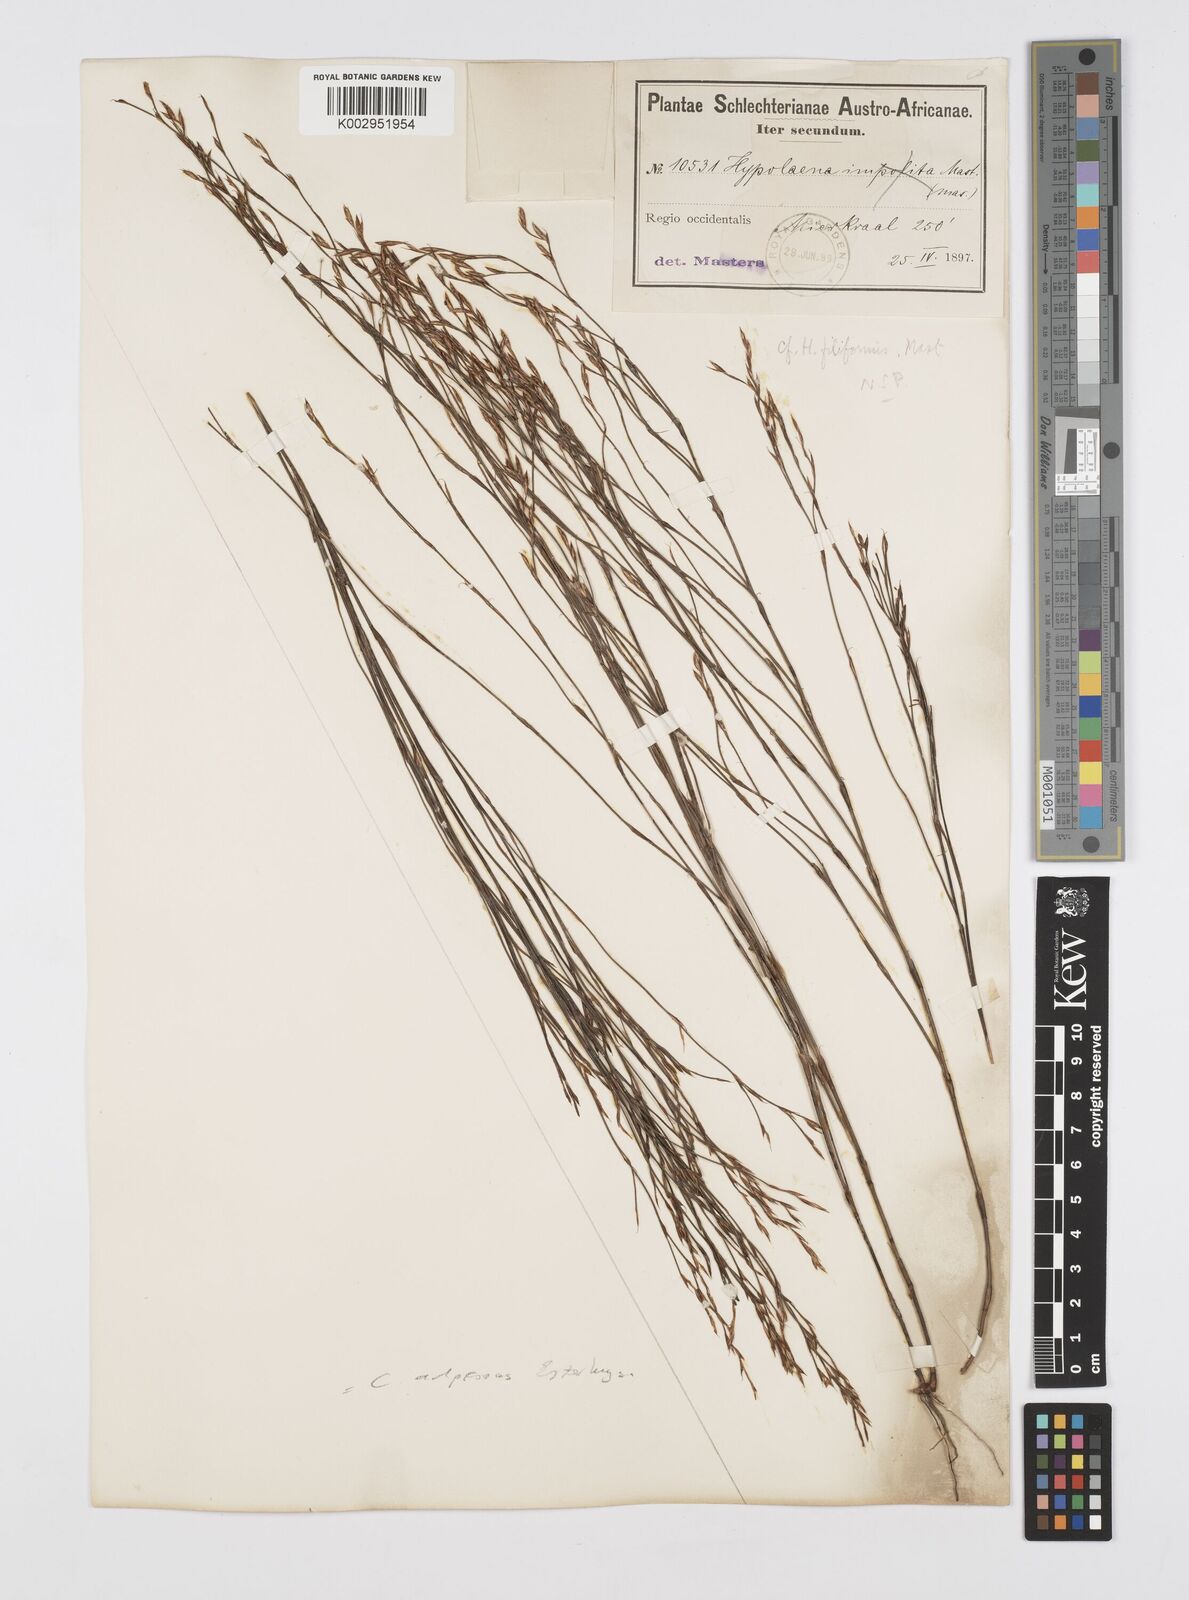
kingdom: Plantae
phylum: Tracheophyta
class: Liliopsida
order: Poales
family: Restionaceae
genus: Restio
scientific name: Restio filiformis
